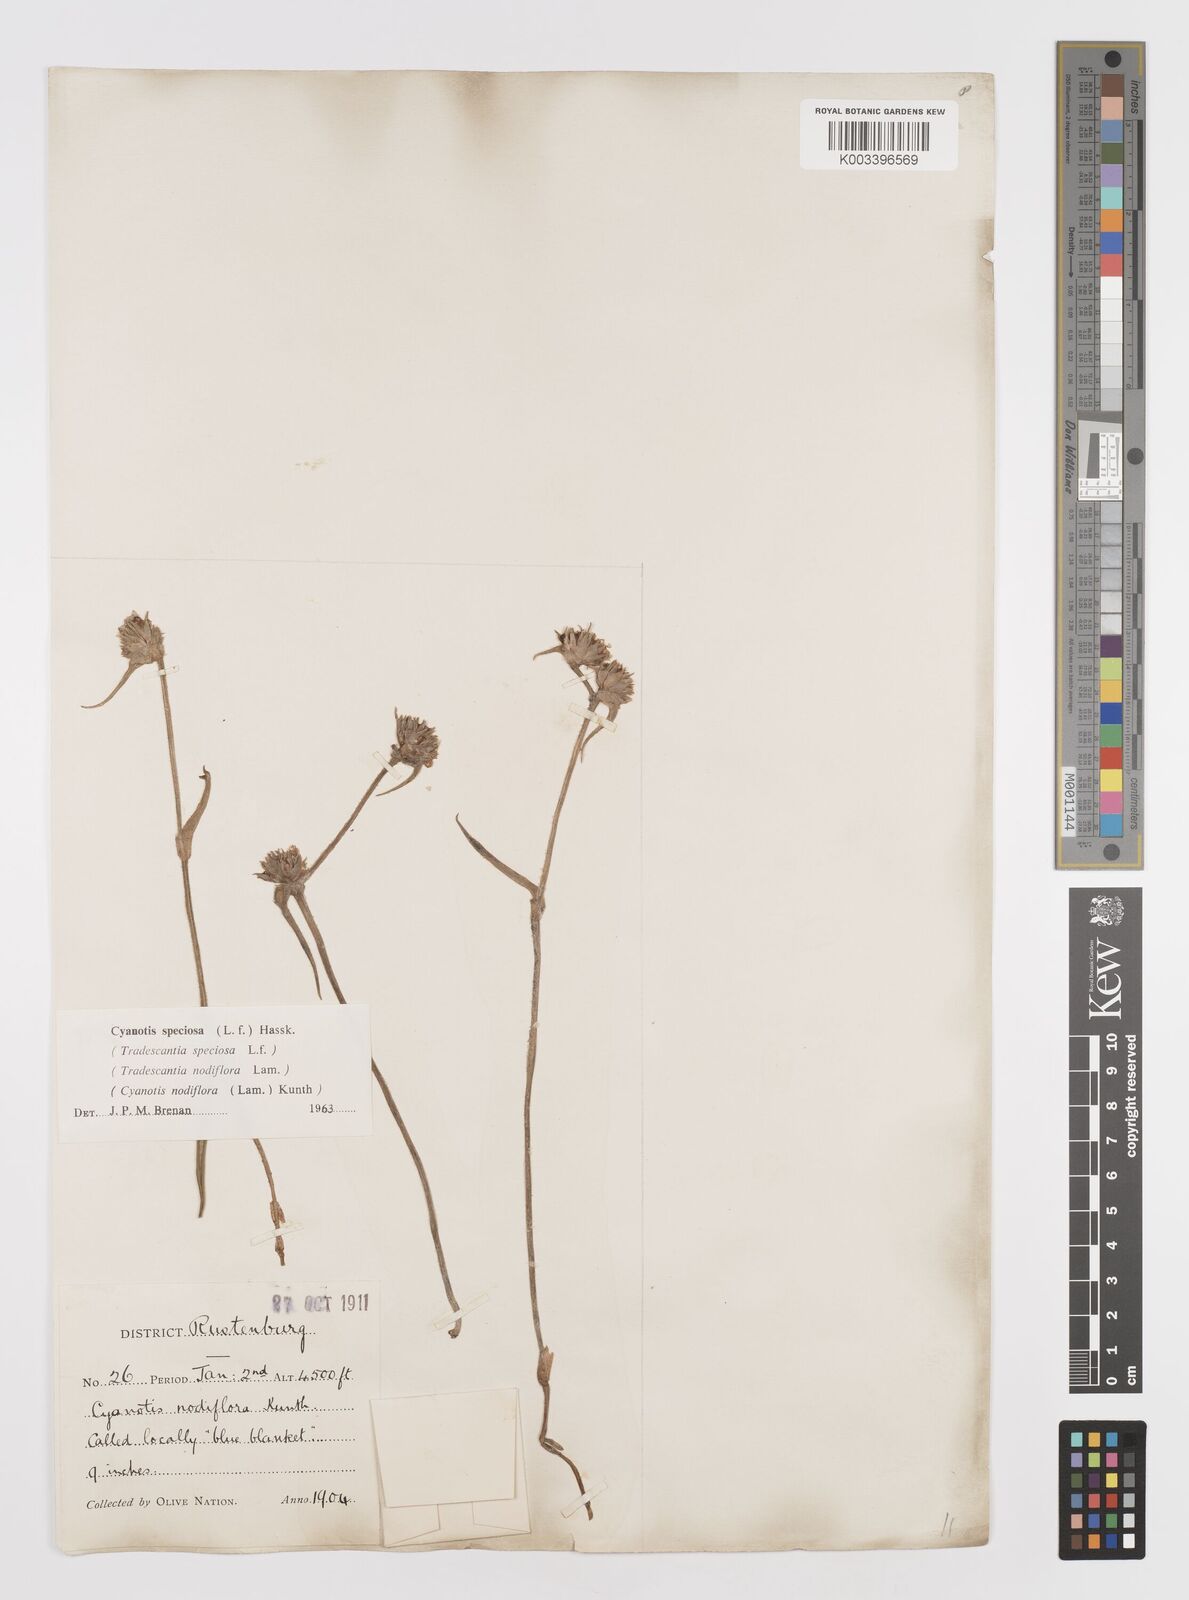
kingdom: Plantae
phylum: Tracheophyta
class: Liliopsida
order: Commelinales
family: Commelinaceae
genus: Cyanotis
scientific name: Cyanotis speciosa
